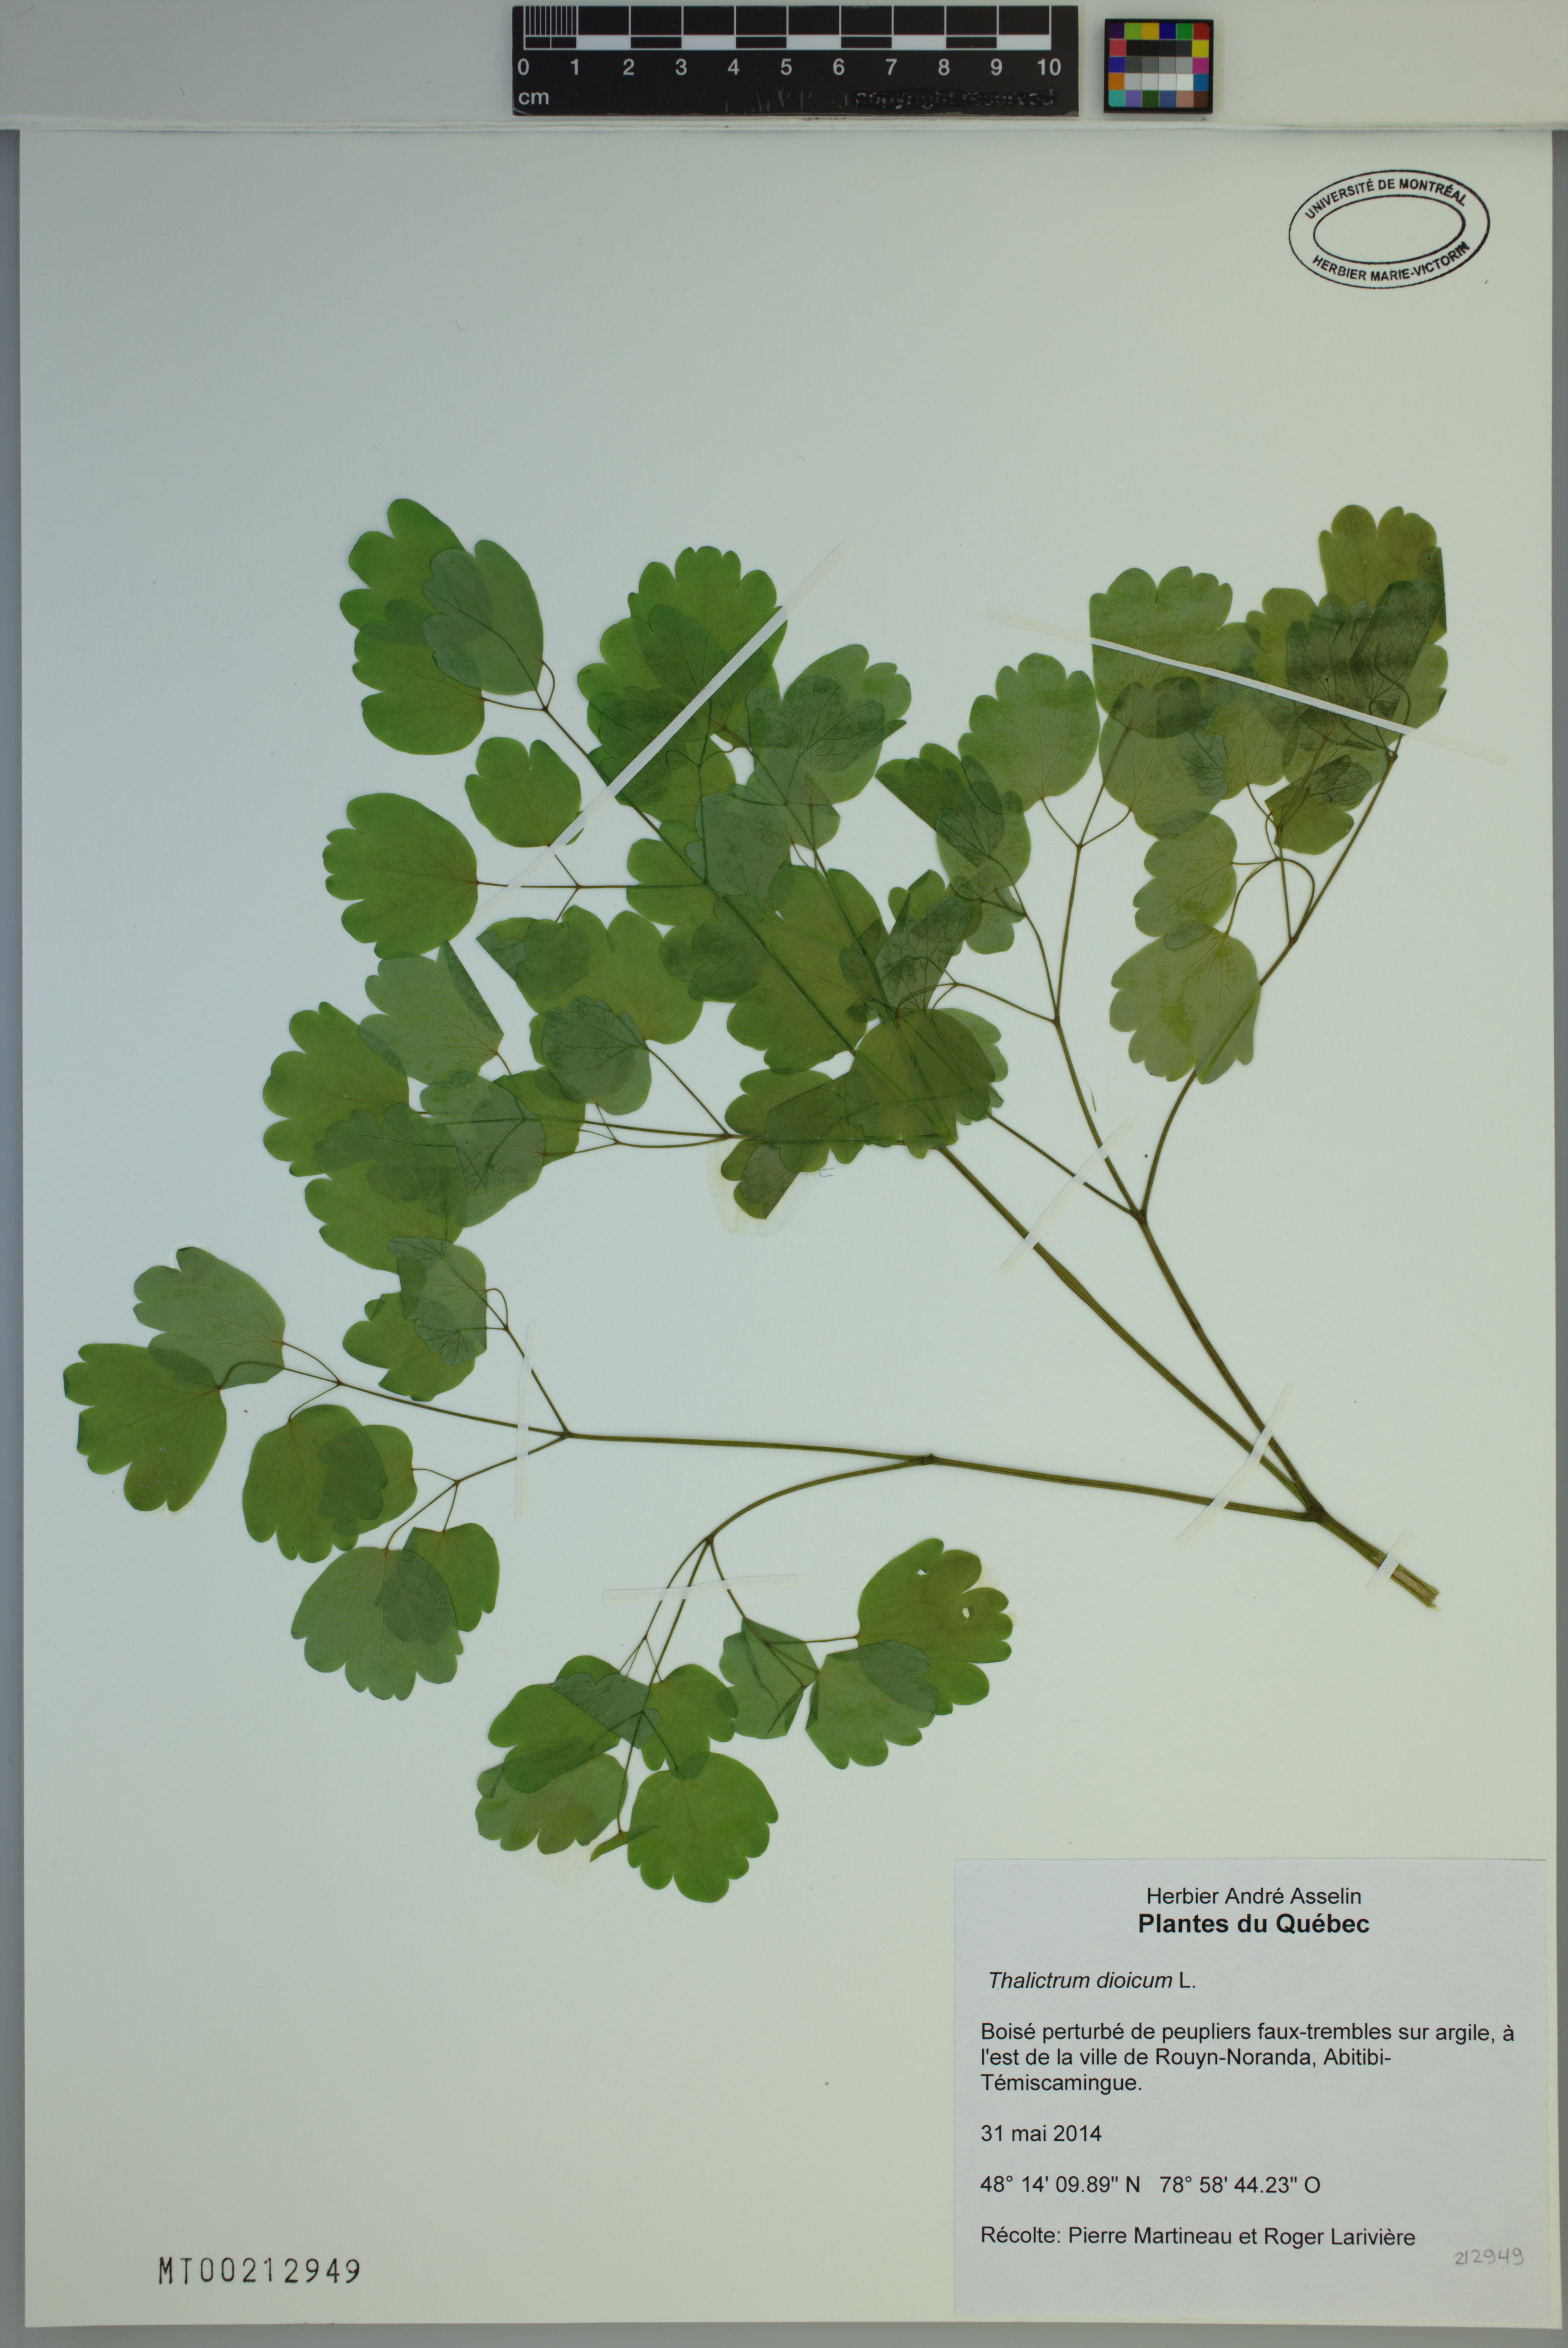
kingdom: Plantae
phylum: Tracheophyta
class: Magnoliopsida
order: Ranunculales
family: Ranunculaceae
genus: Thalictrum
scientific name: Thalictrum dioicum
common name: Early meadow-rue
